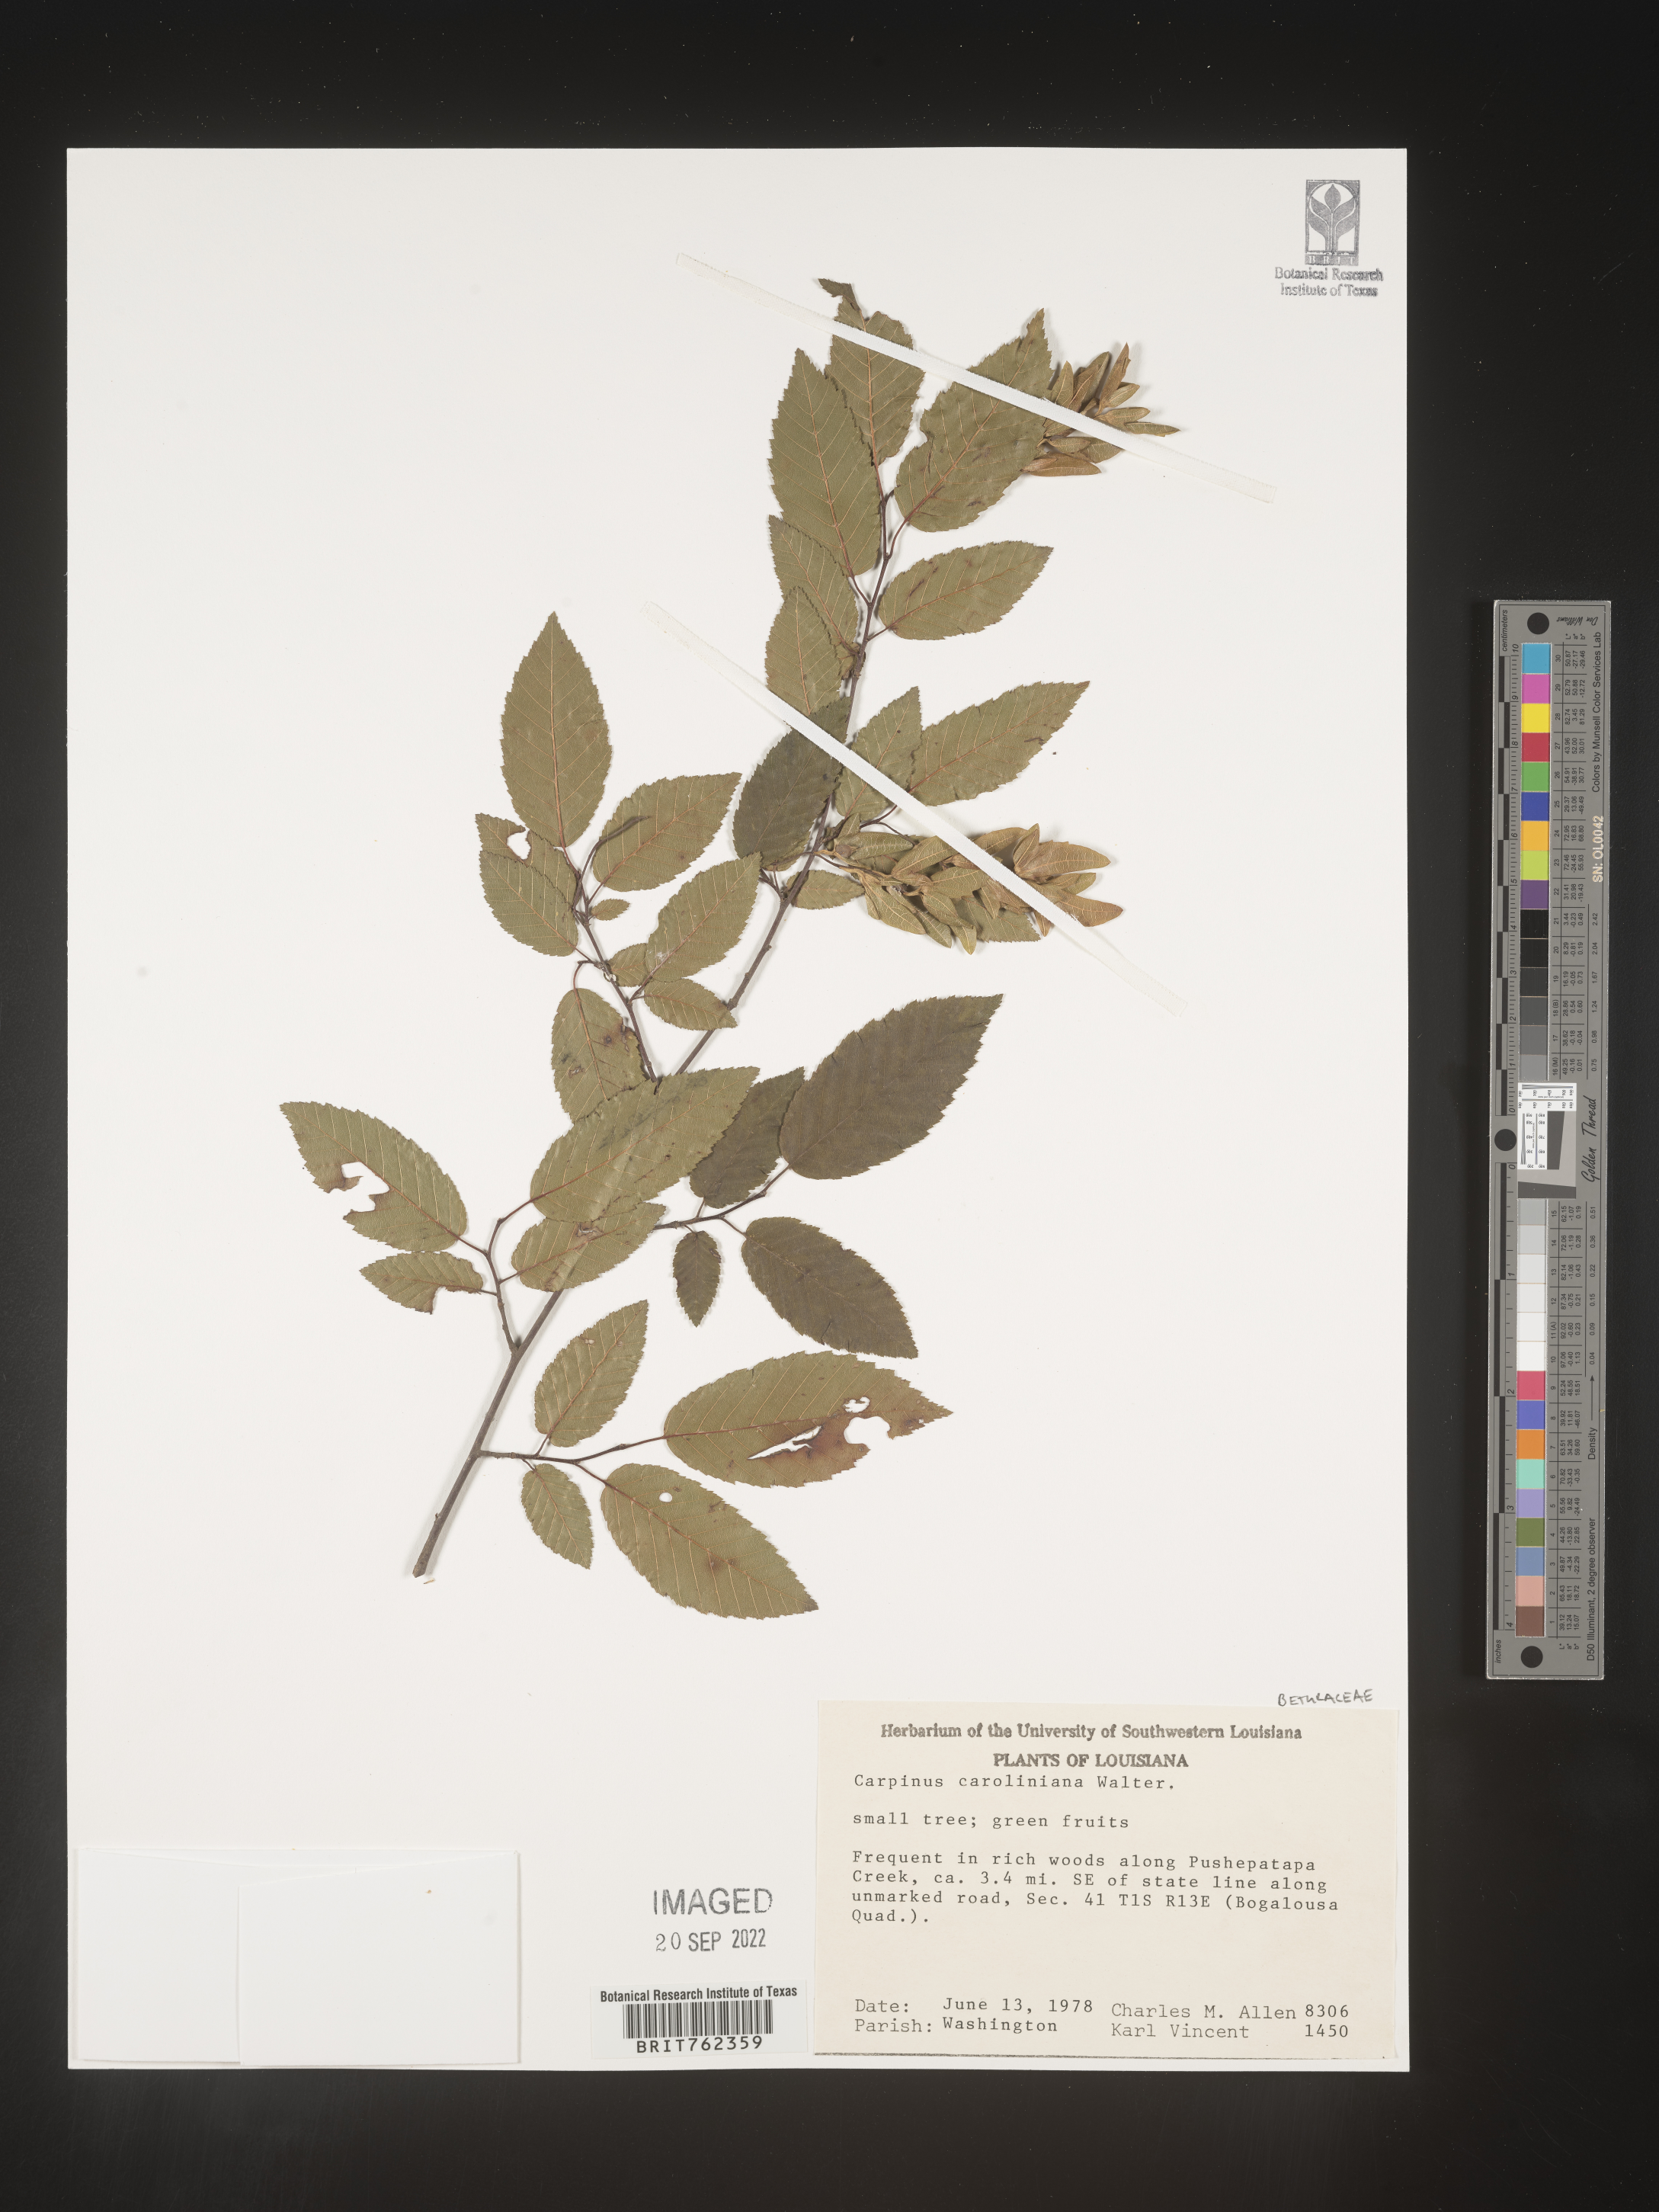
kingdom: Plantae
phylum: Tracheophyta
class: Magnoliopsida
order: Fagales
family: Betulaceae
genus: Carpinus
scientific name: Carpinus caroliniana
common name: American hornbeam
